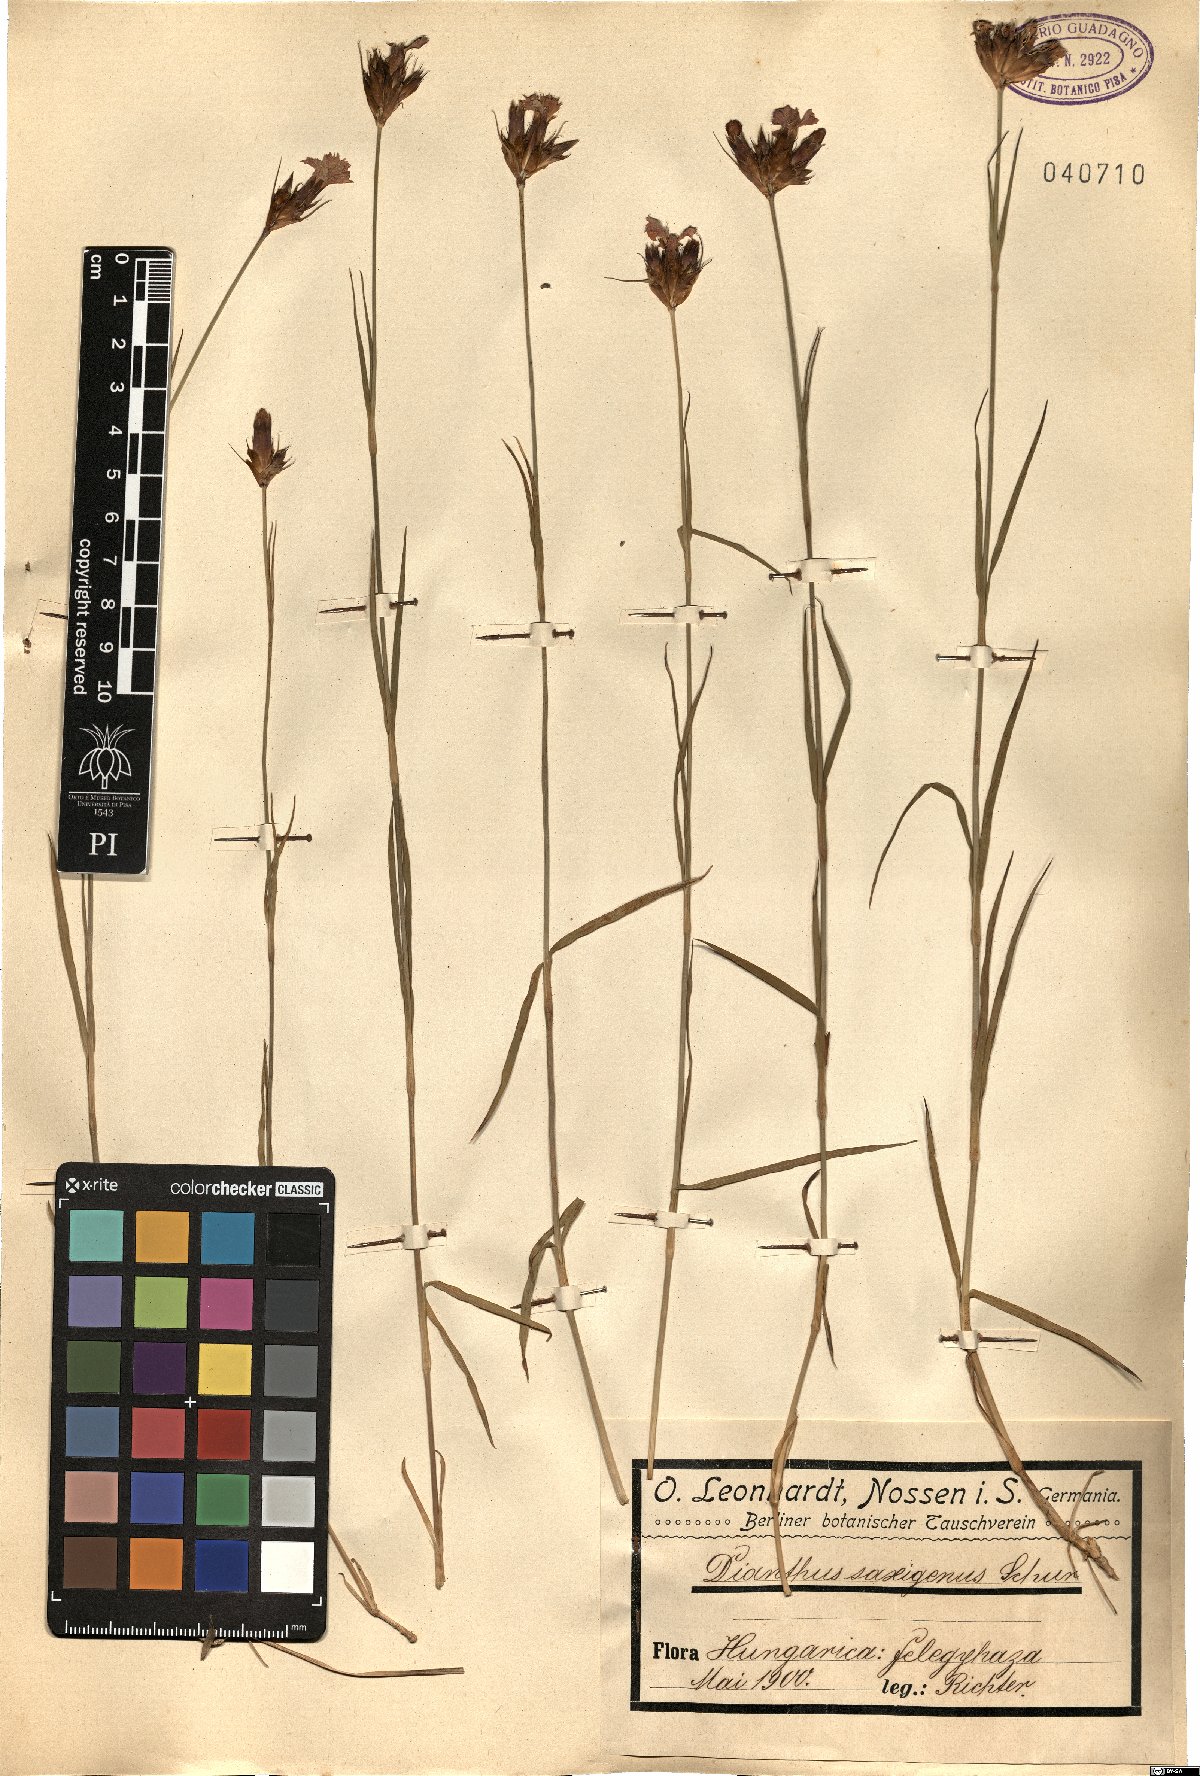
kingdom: Plantae
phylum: Tracheophyta
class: Magnoliopsida
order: Caryophyllales
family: Caryophyllaceae
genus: Dianthus
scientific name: Dianthus carthusianorum
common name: Carthusian pink
